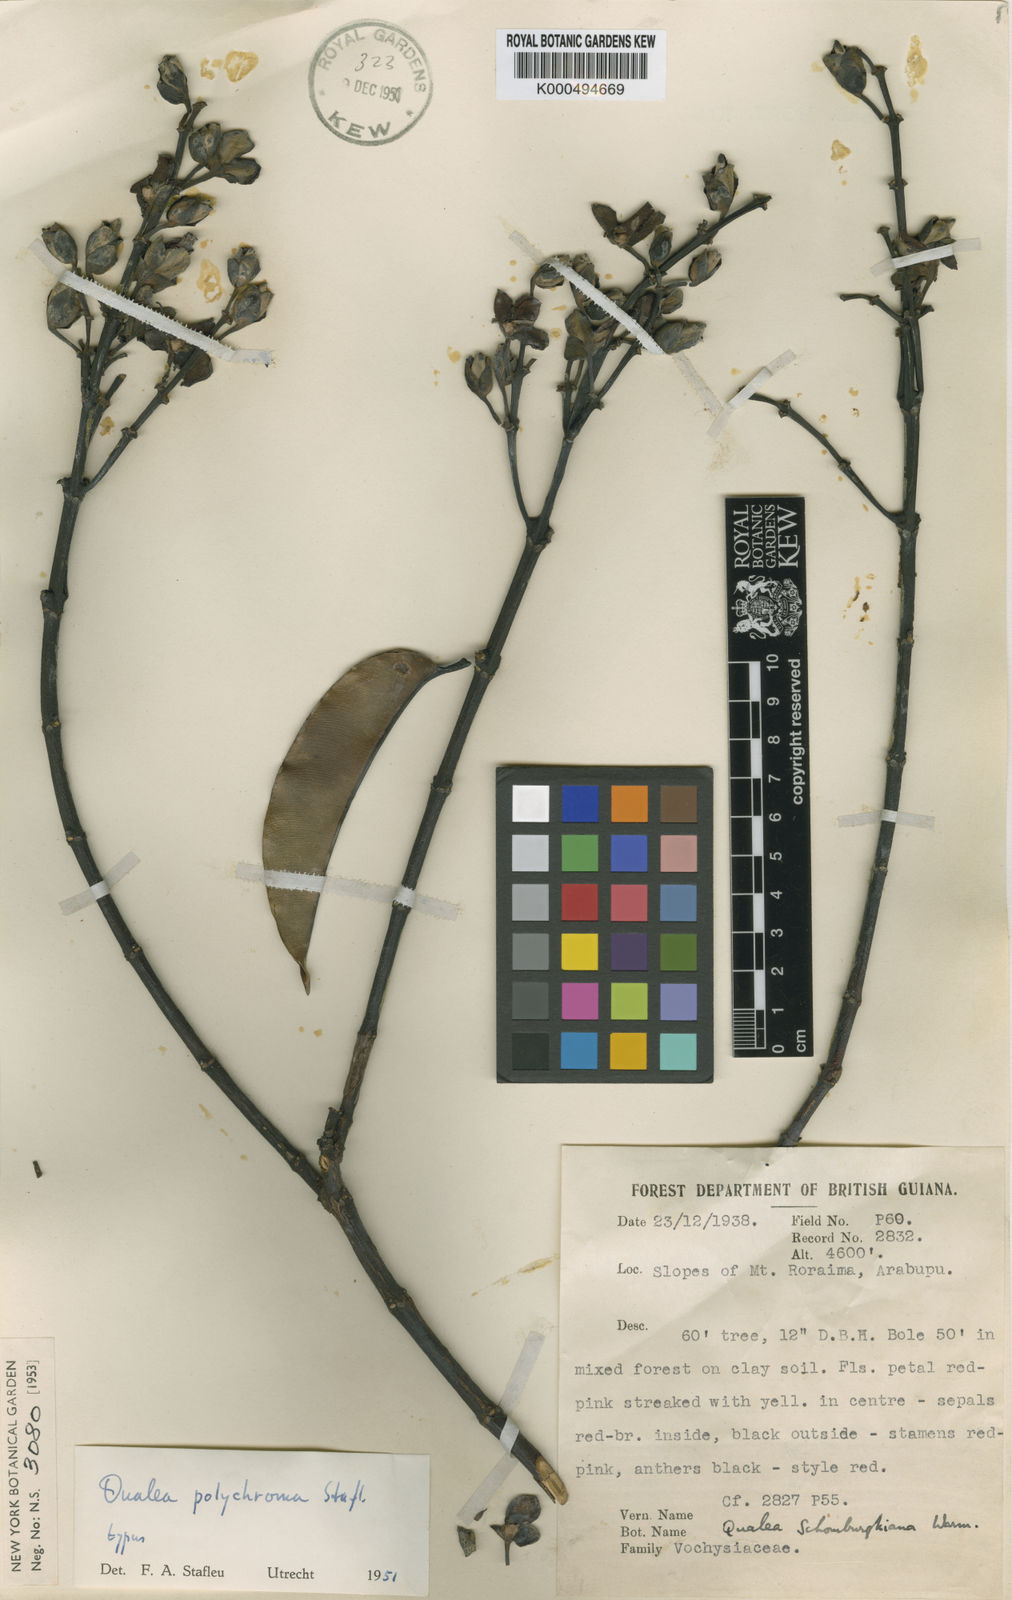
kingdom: Plantae
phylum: Tracheophyta
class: Magnoliopsida
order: Myrtales
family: Vochysiaceae
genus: Qualea
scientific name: Qualea polychroma
